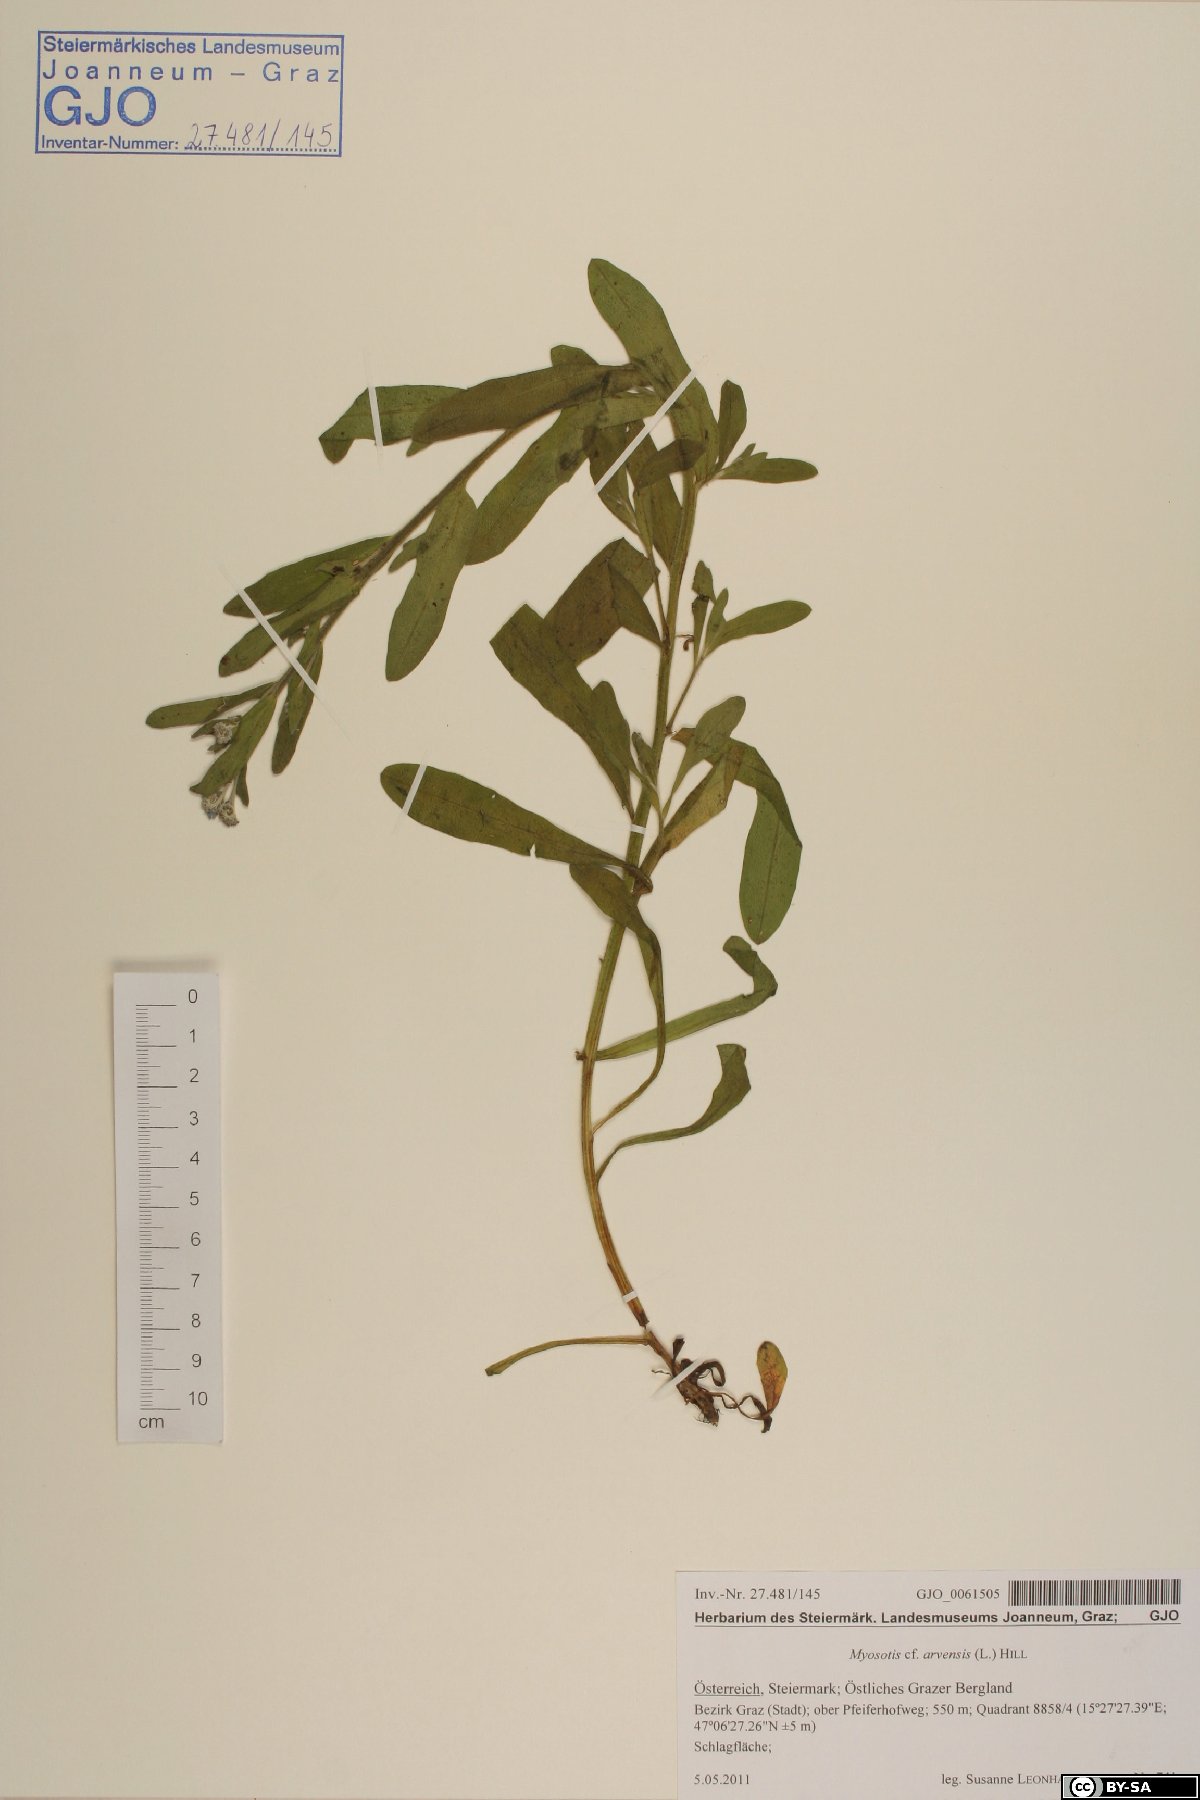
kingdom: Plantae
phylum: Tracheophyta
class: Magnoliopsida
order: Boraginales
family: Boraginaceae
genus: Myosotis
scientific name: Myosotis arvensis
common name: Field forget-me-not
